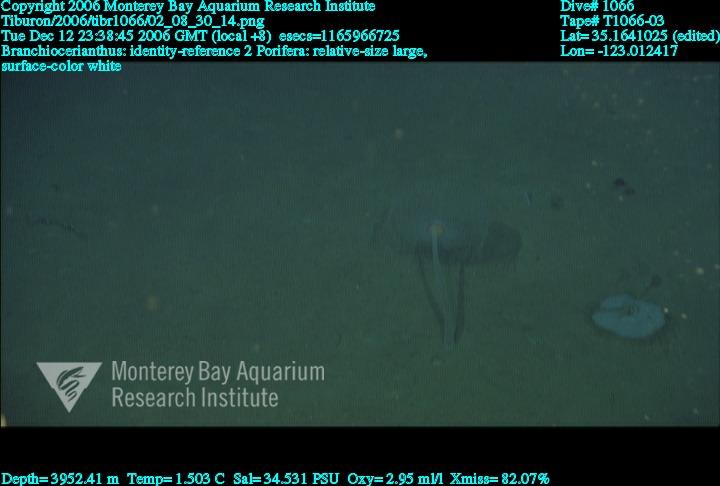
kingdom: Animalia
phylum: Porifera
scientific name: Porifera
